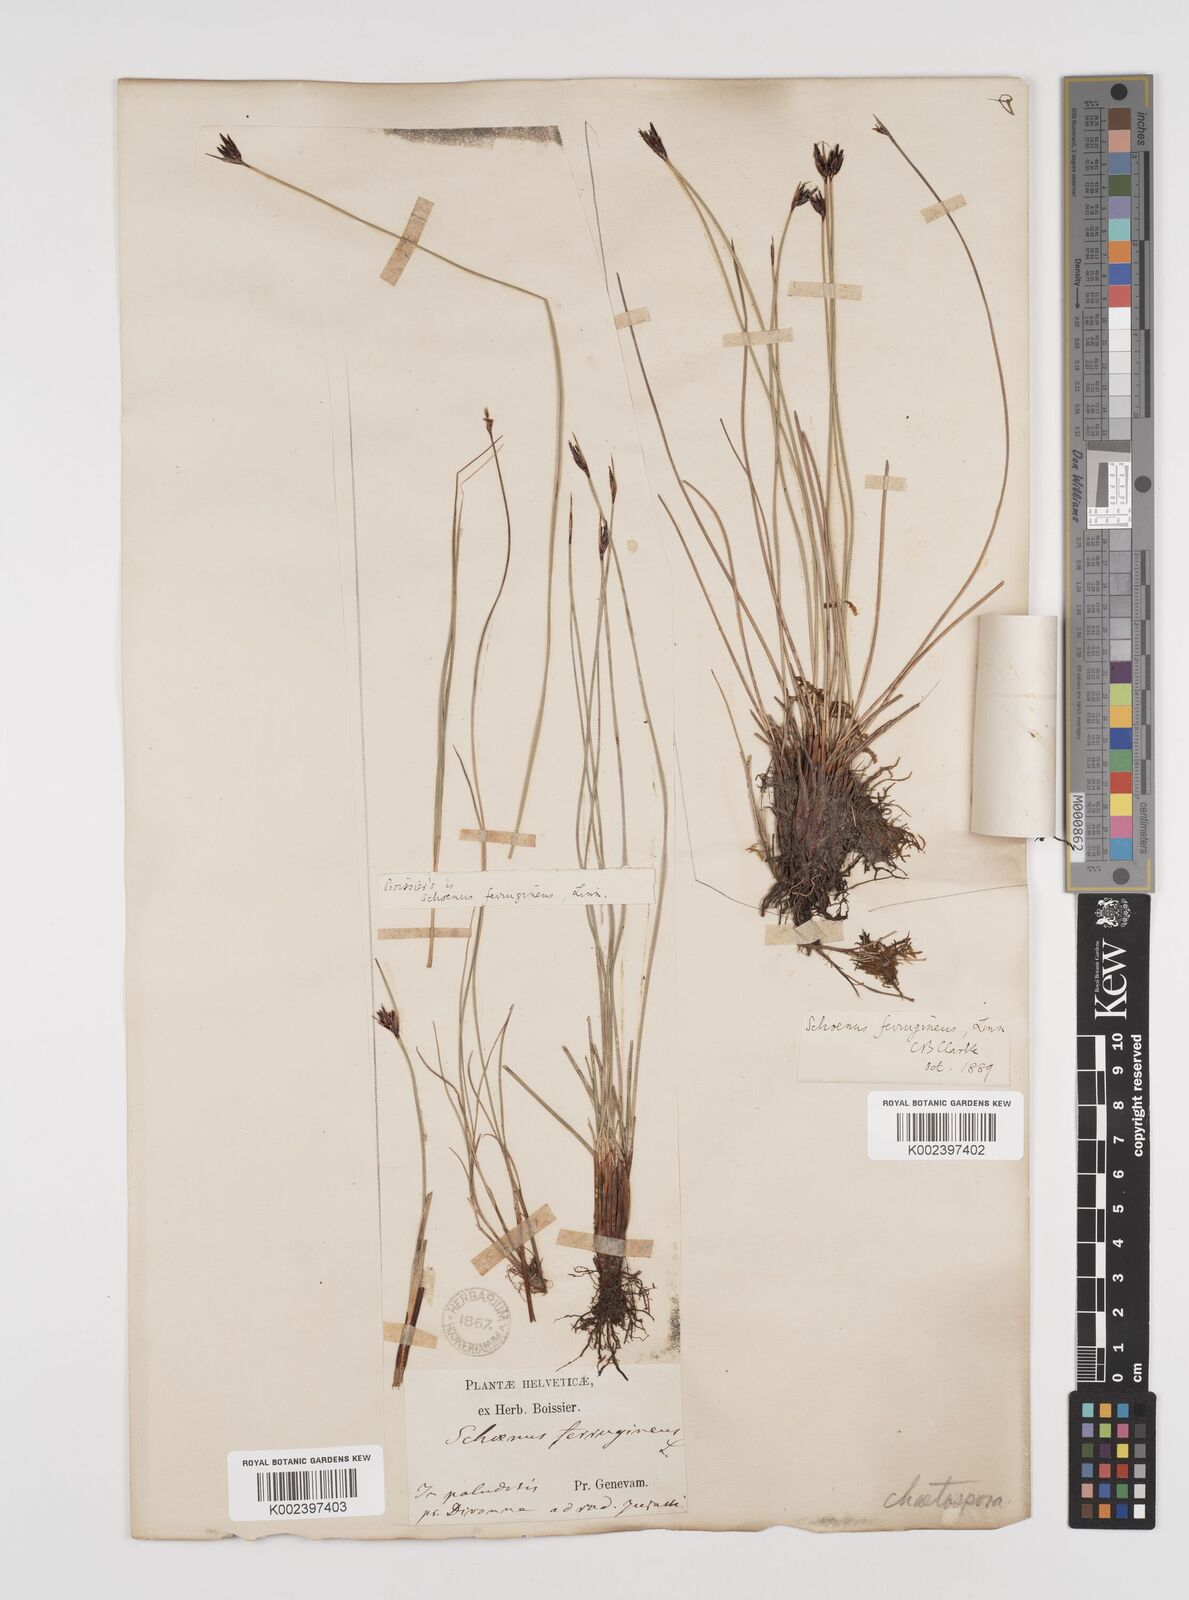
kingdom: Plantae
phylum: Tracheophyta
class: Liliopsida
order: Poales
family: Cyperaceae
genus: Schoenus
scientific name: Schoenus ferrugineus
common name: Brown bog-rush
